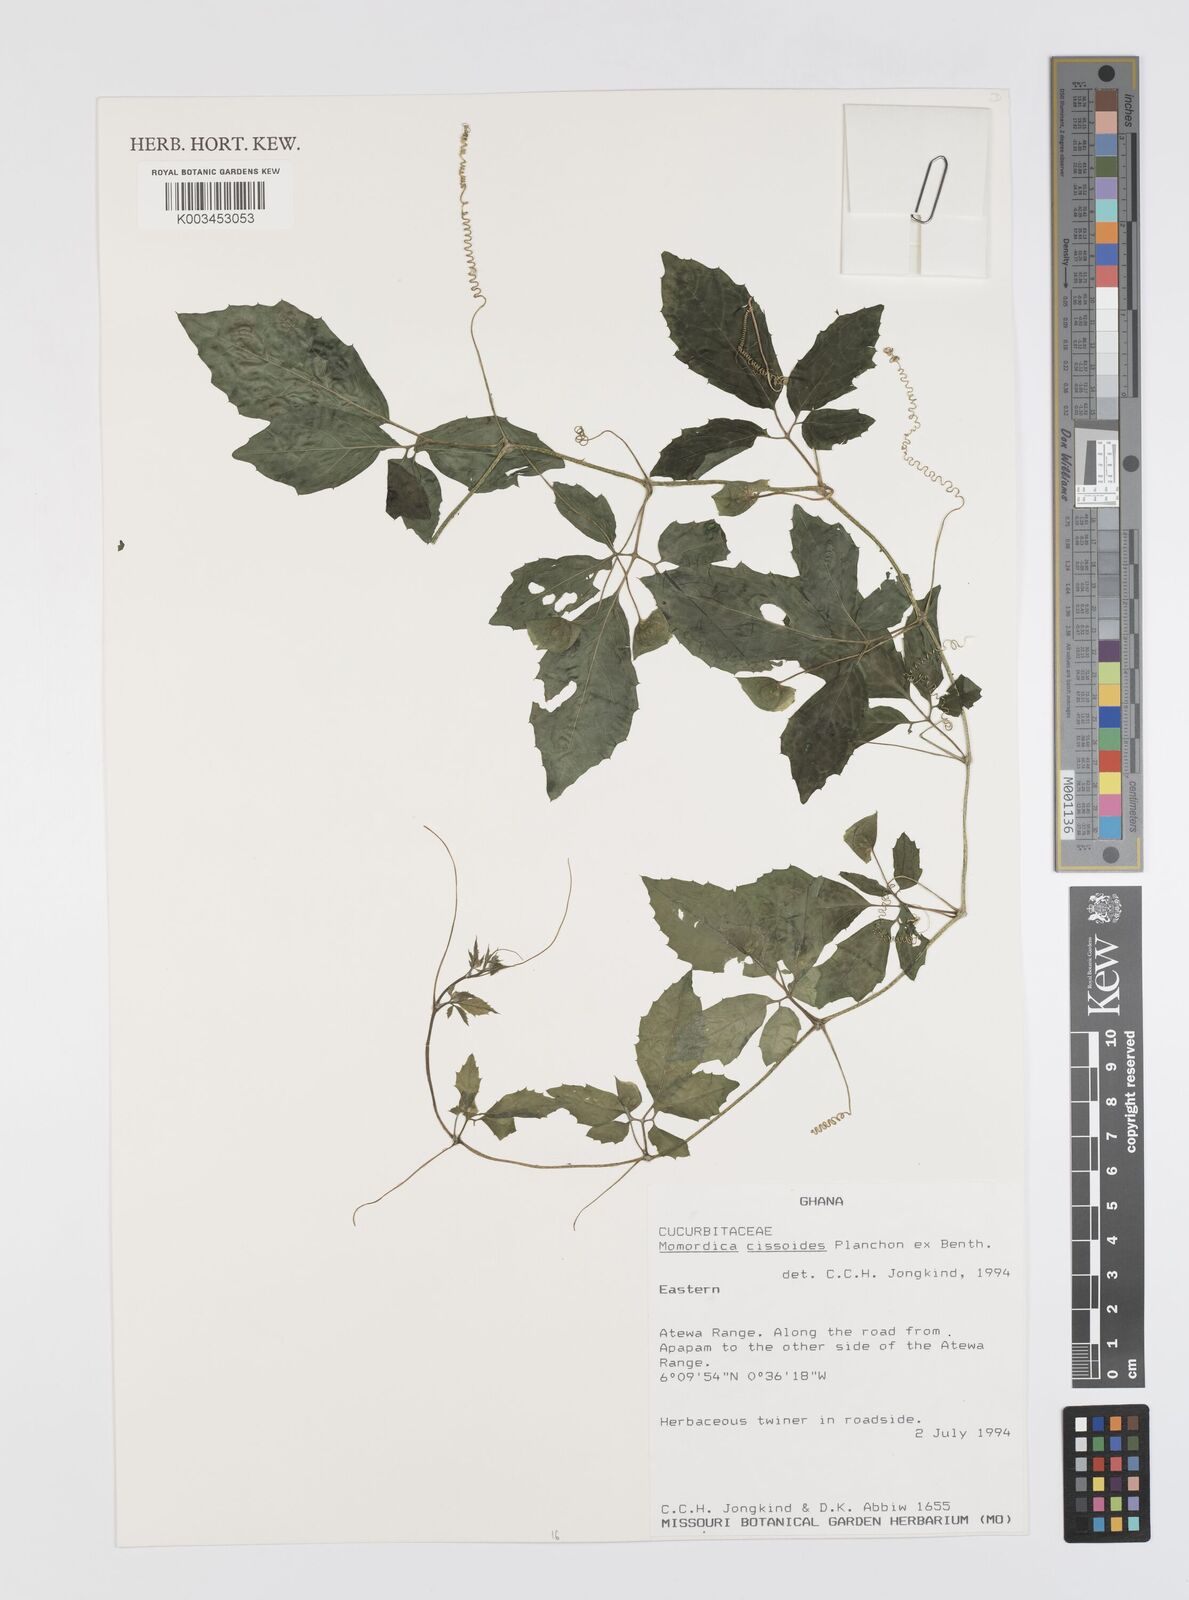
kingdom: Plantae
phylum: Tracheophyta
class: Magnoliopsida
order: Cucurbitales
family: Cucurbitaceae
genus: Momordica
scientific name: Momordica cissoides
